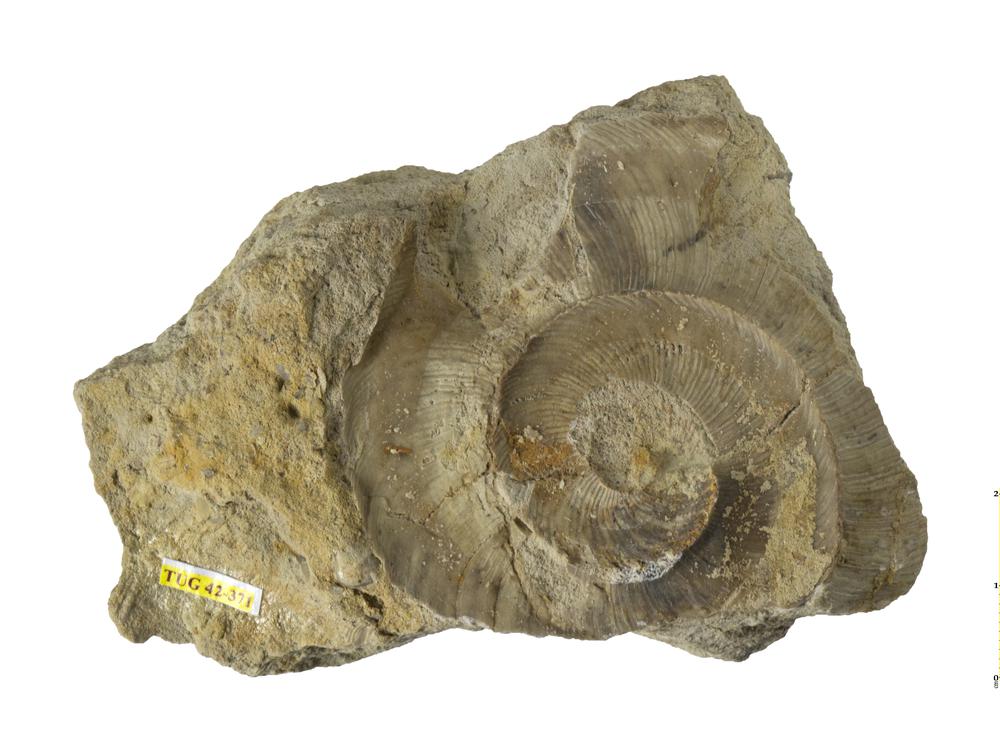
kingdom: Animalia
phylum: Mollusca
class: Cephalopoda
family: Phragmoceratidae
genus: Phragmoceras
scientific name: Phragmoceras
